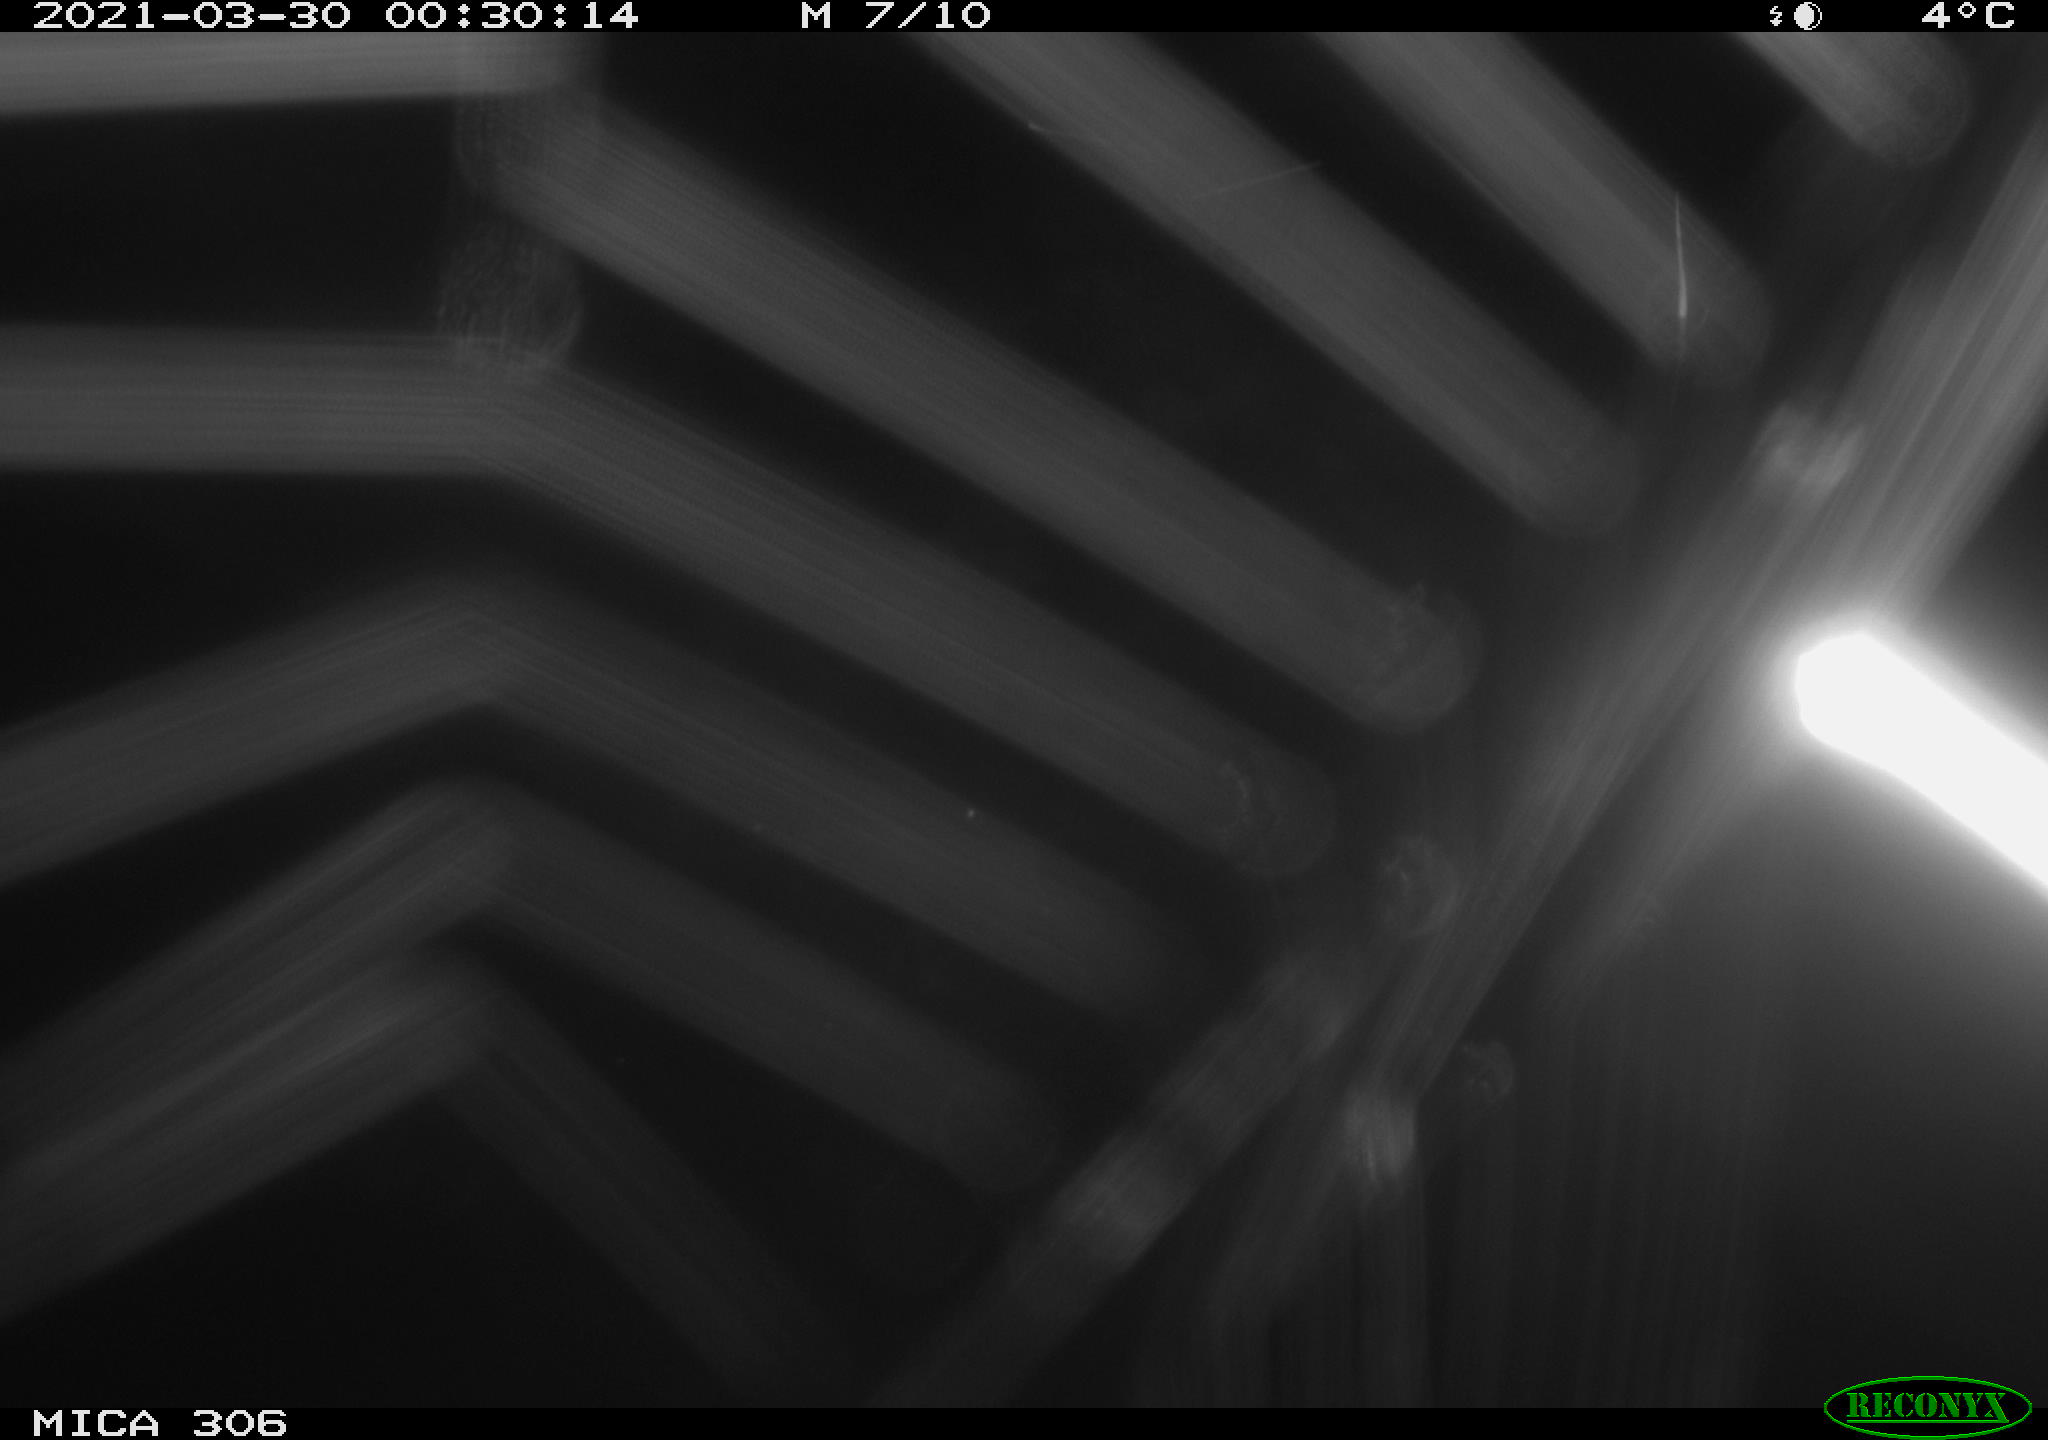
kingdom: Animalia
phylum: Chordata
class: Aves
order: Anseriformes
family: Anatidae
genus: Anas
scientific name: Anas platyrhynchos
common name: Mallard
